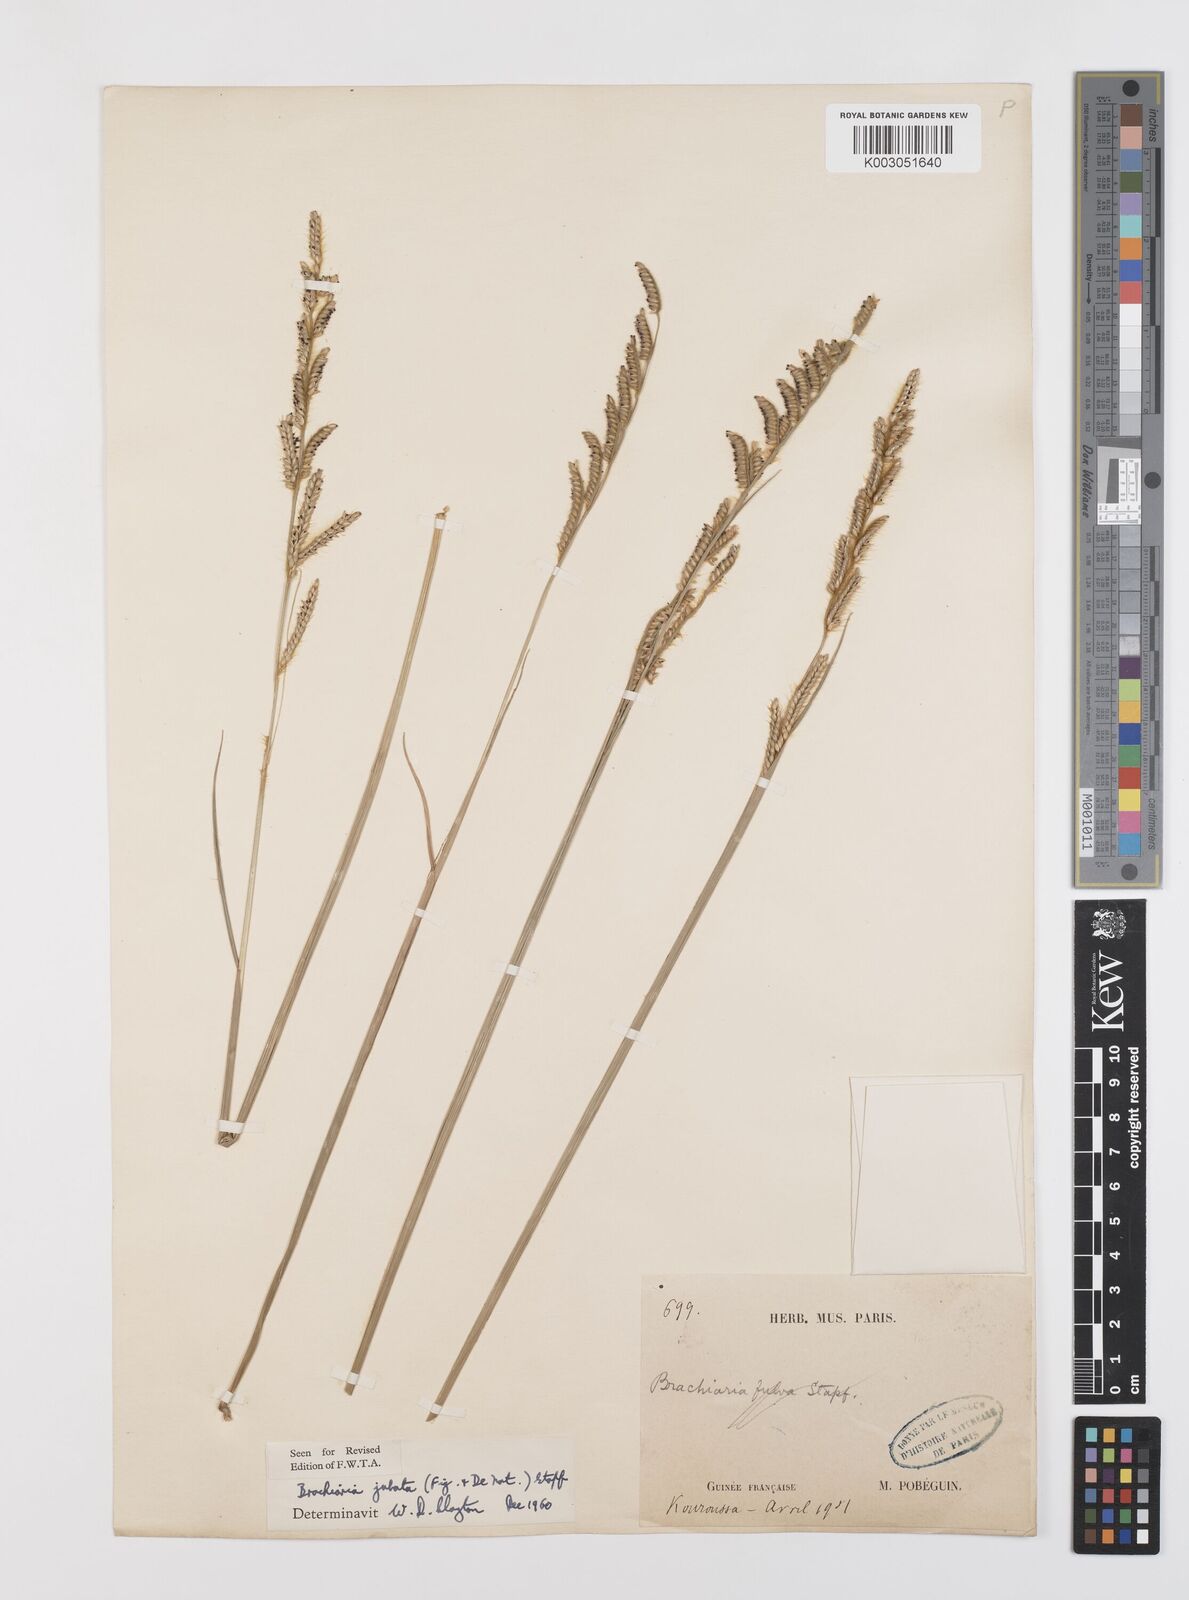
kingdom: Plantae
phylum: Tracheophyta
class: Liliopsida
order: Poales
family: Poaceae
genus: Urochloa
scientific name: Urochloa jubata
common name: Buffalograss
